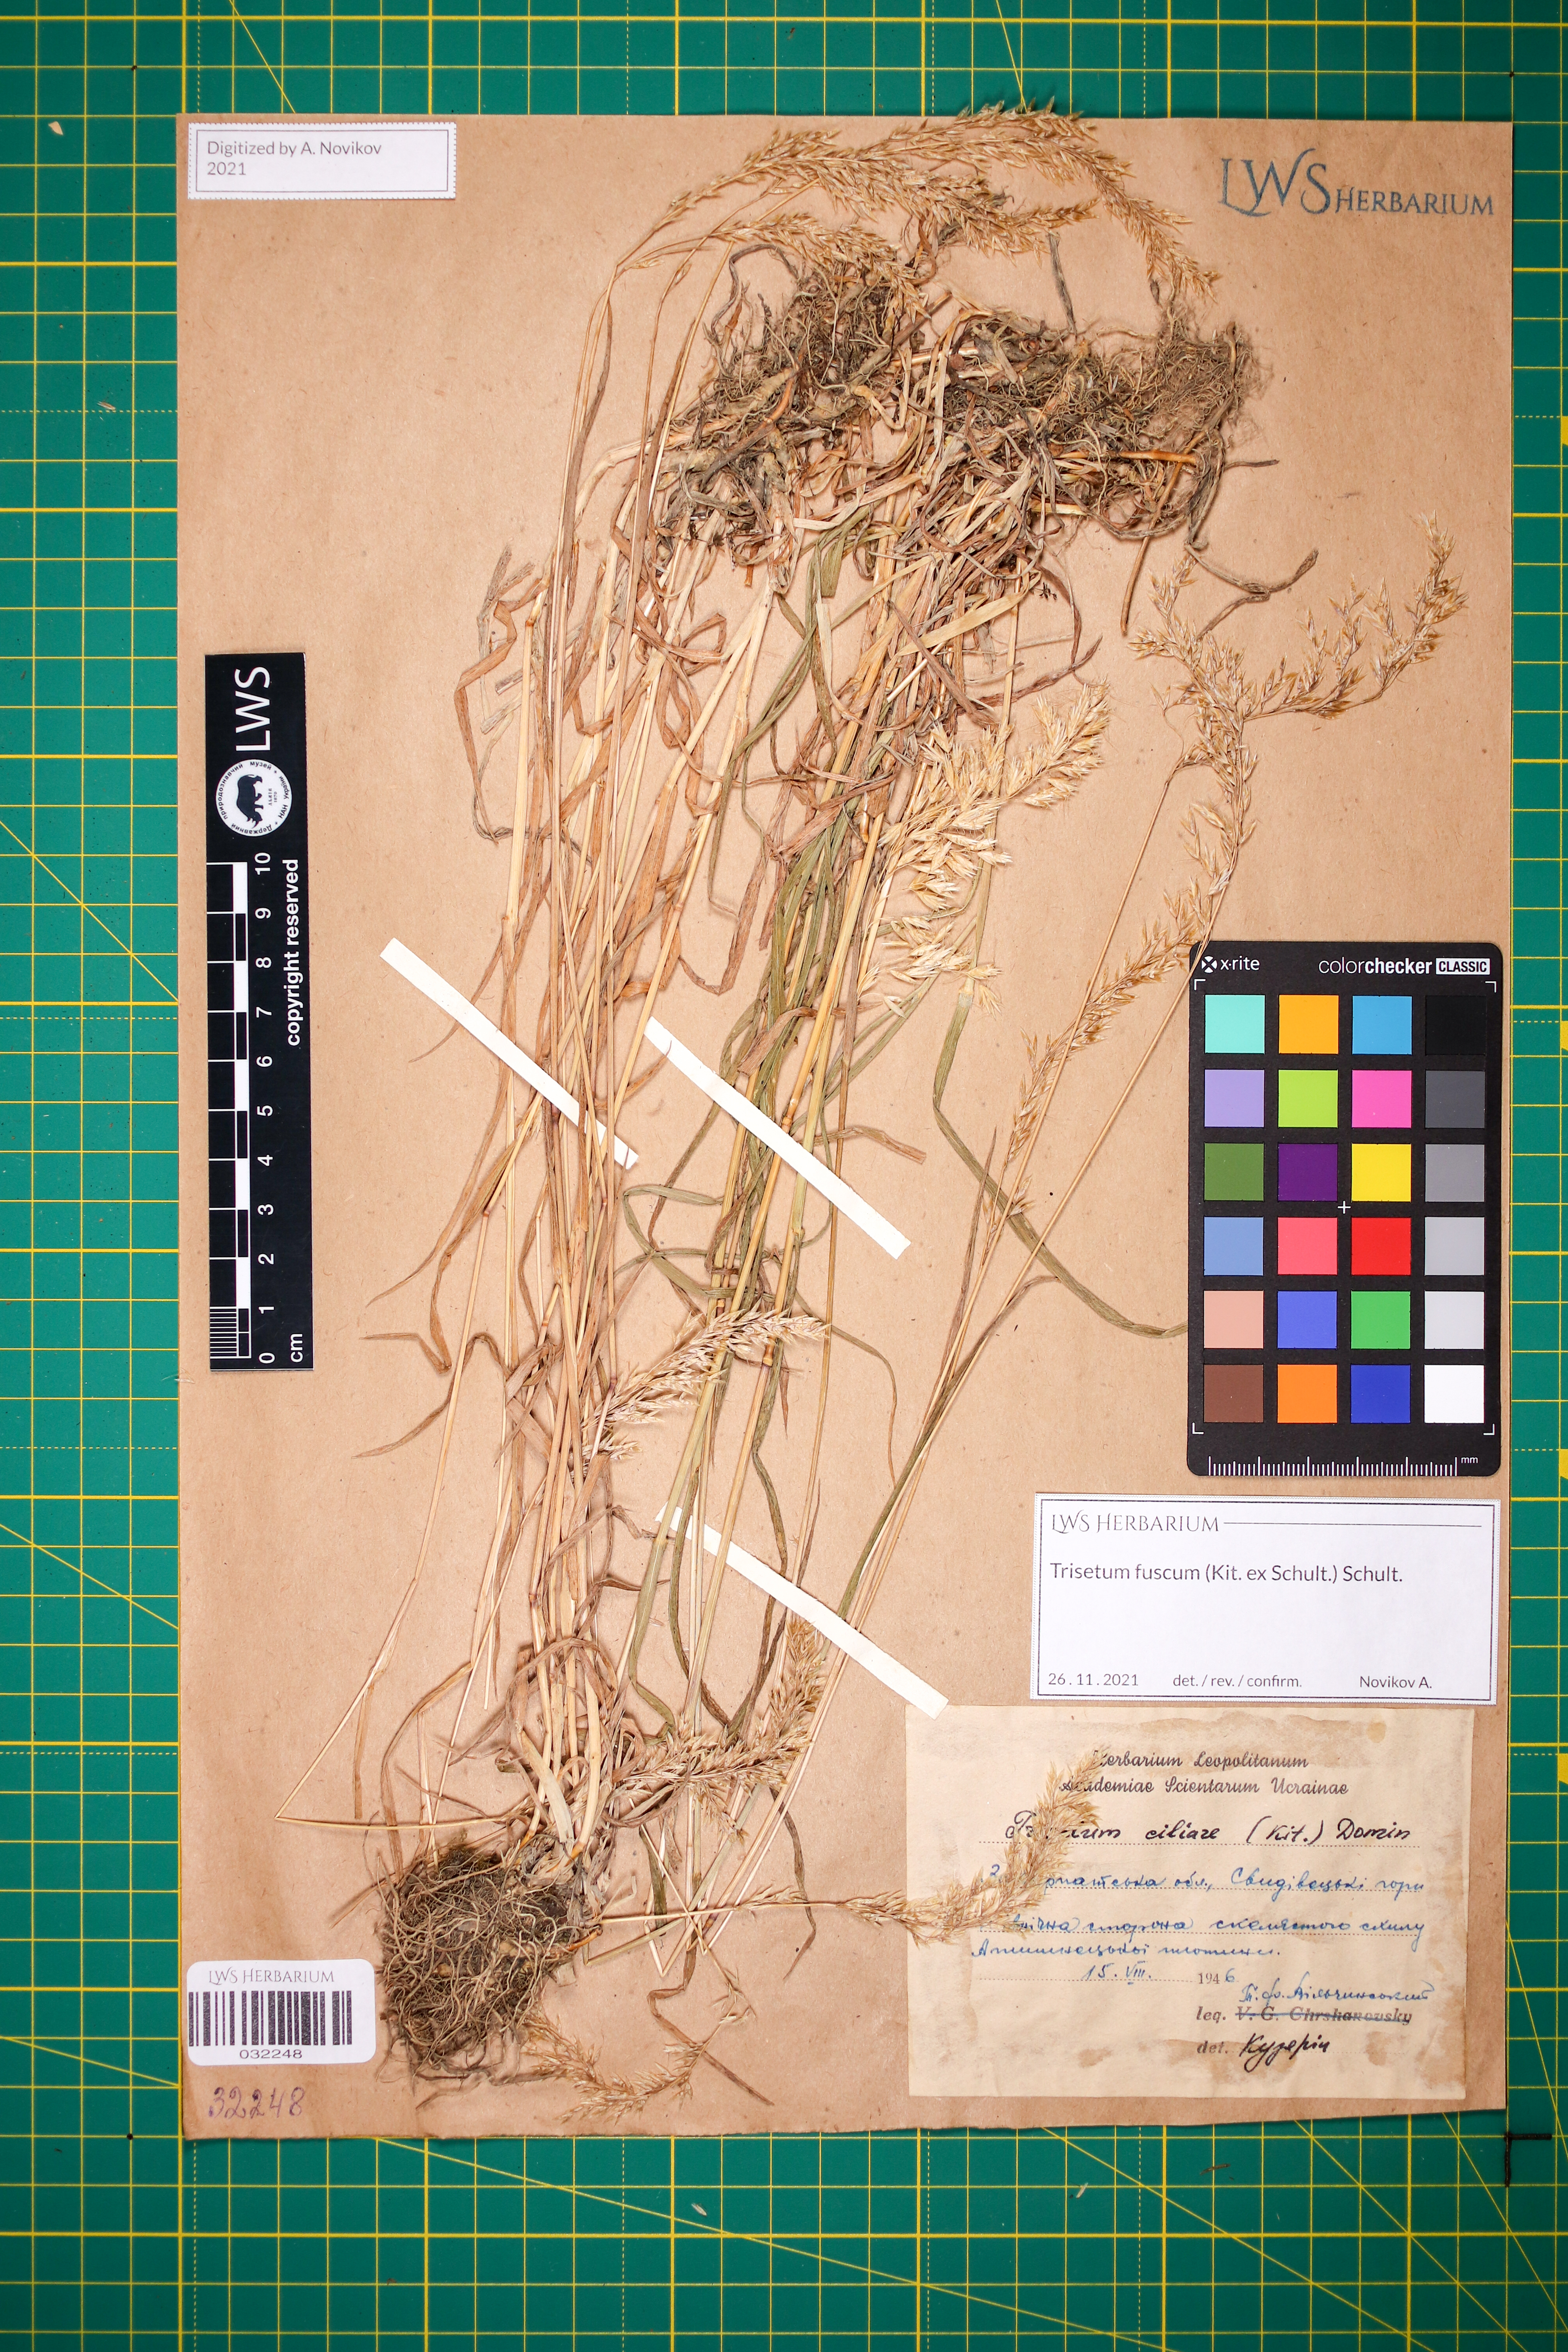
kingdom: Plantae
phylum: Tracheophyta
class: Liliopsida
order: Poales
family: Poaceae
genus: Trisetum
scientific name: Trisetum fuscum
